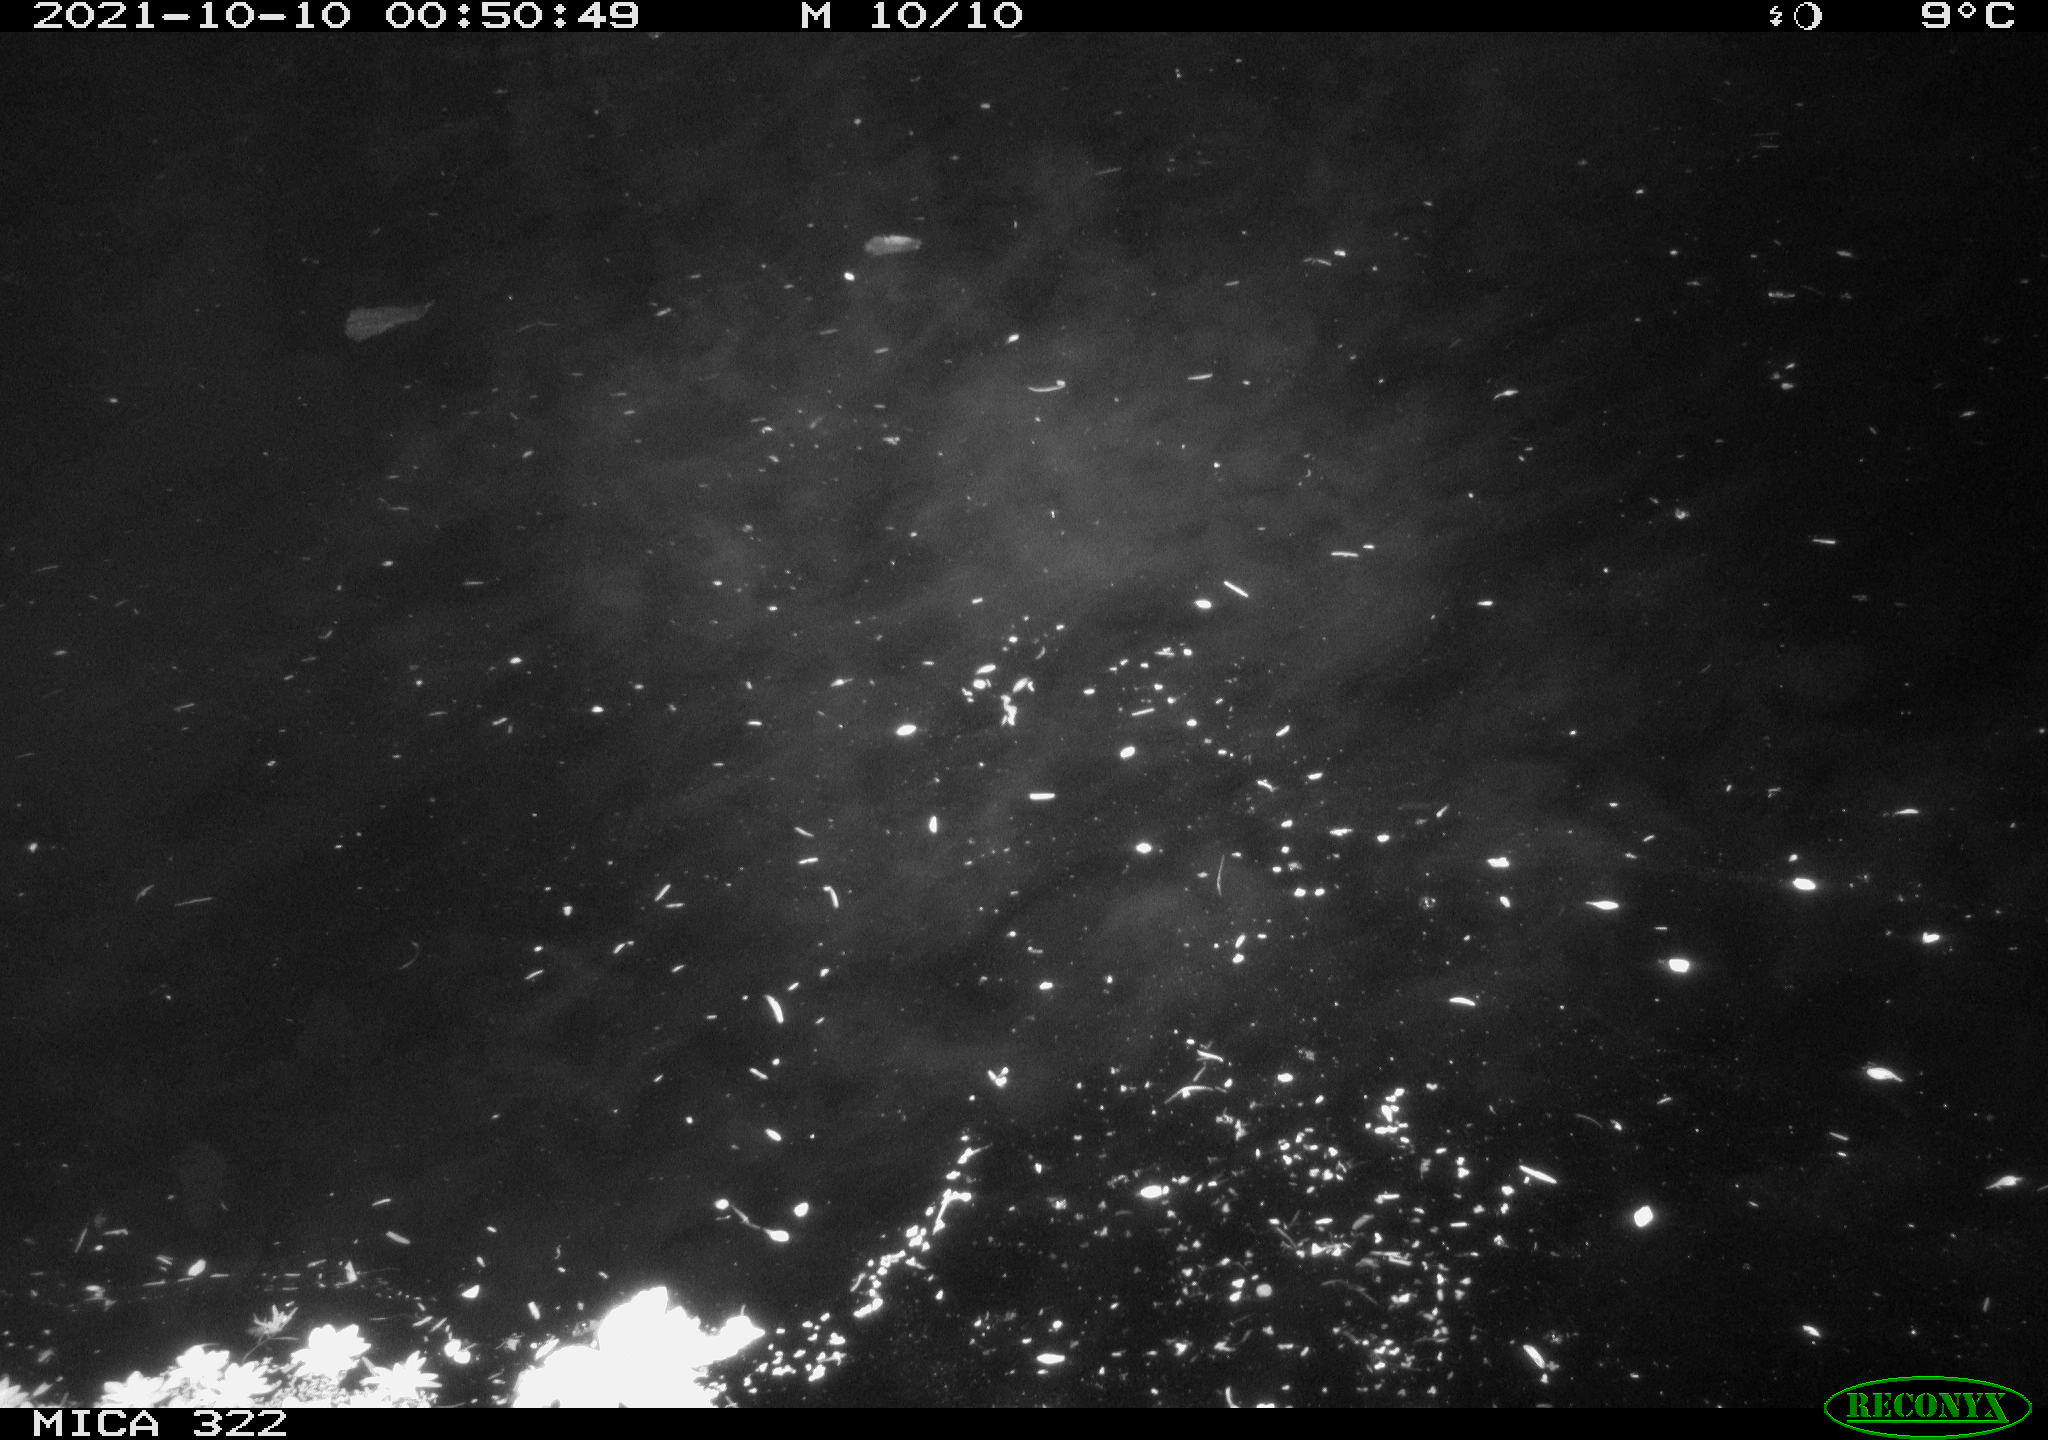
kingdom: Animalia
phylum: Chordata
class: Mammalia
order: Rodentia
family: Muridae
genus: Rattus
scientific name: Rattus norvegicus
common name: Brown rat
